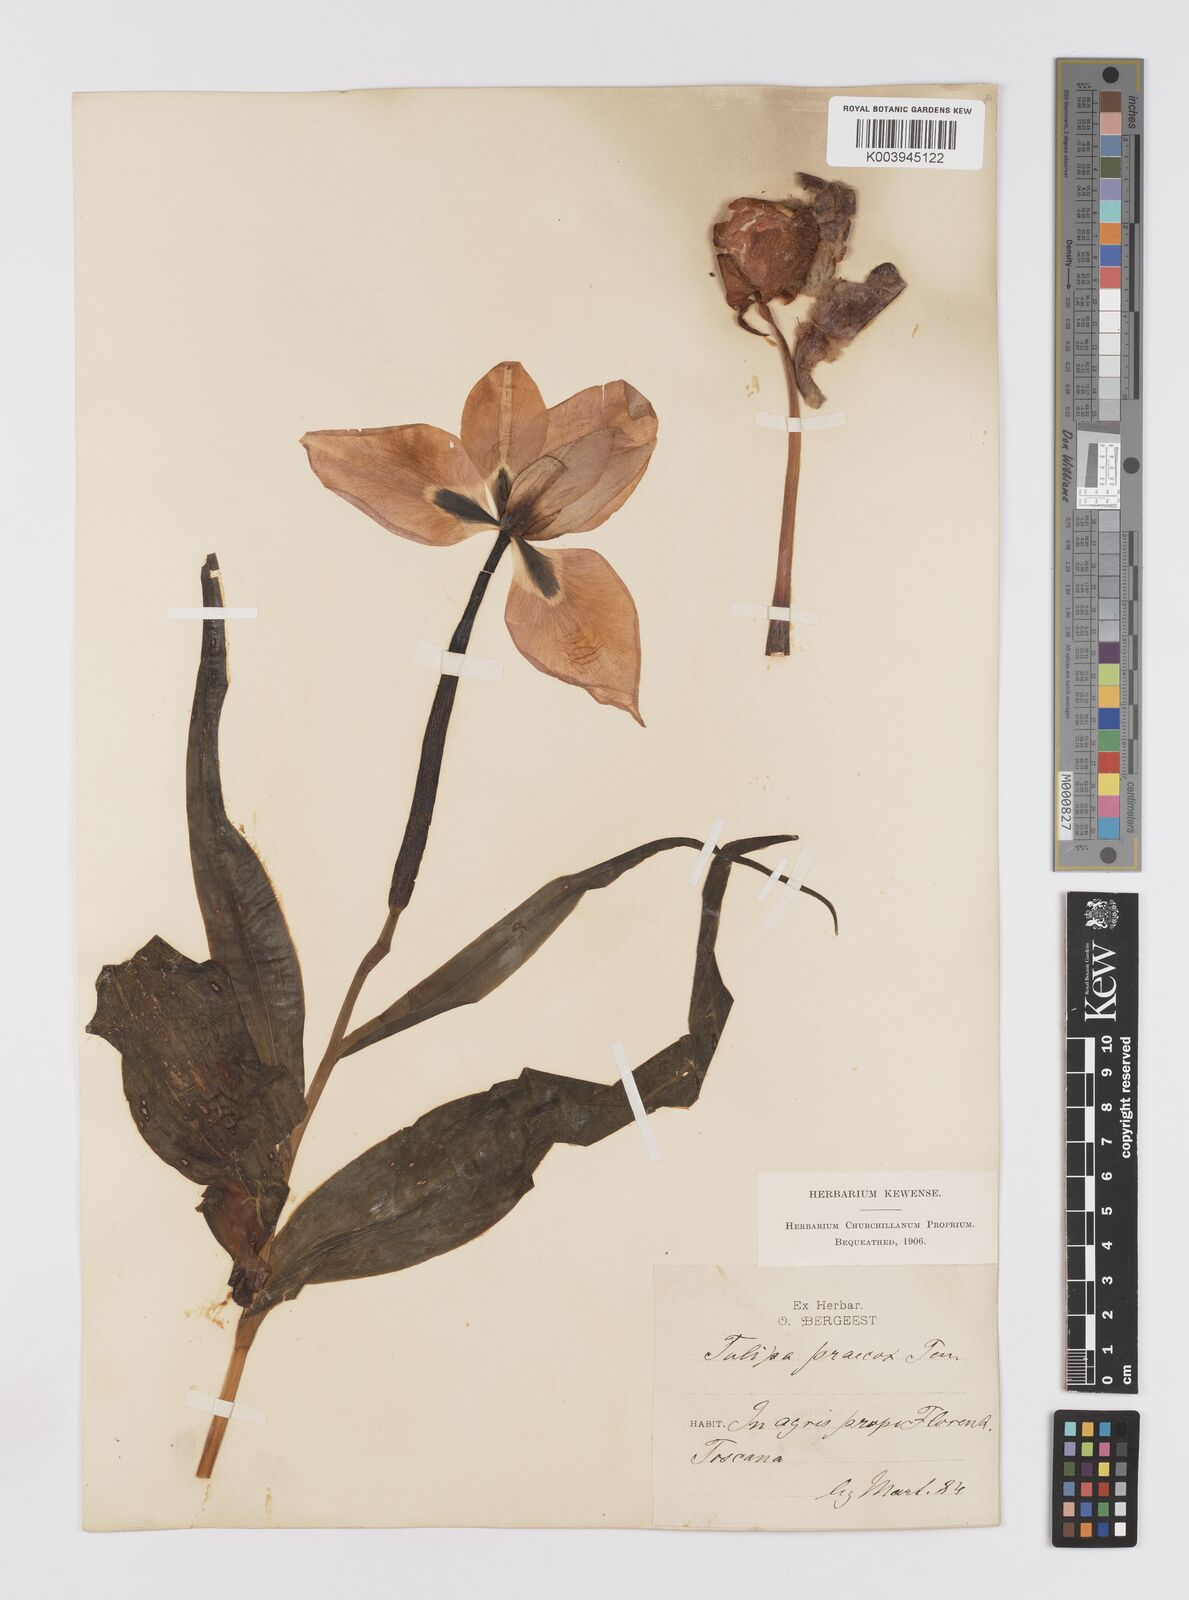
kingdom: Plantae
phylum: Tracheophyta
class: Liliopsida
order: Liliales
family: Liliaceae
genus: Tulipa
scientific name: Tulipa
